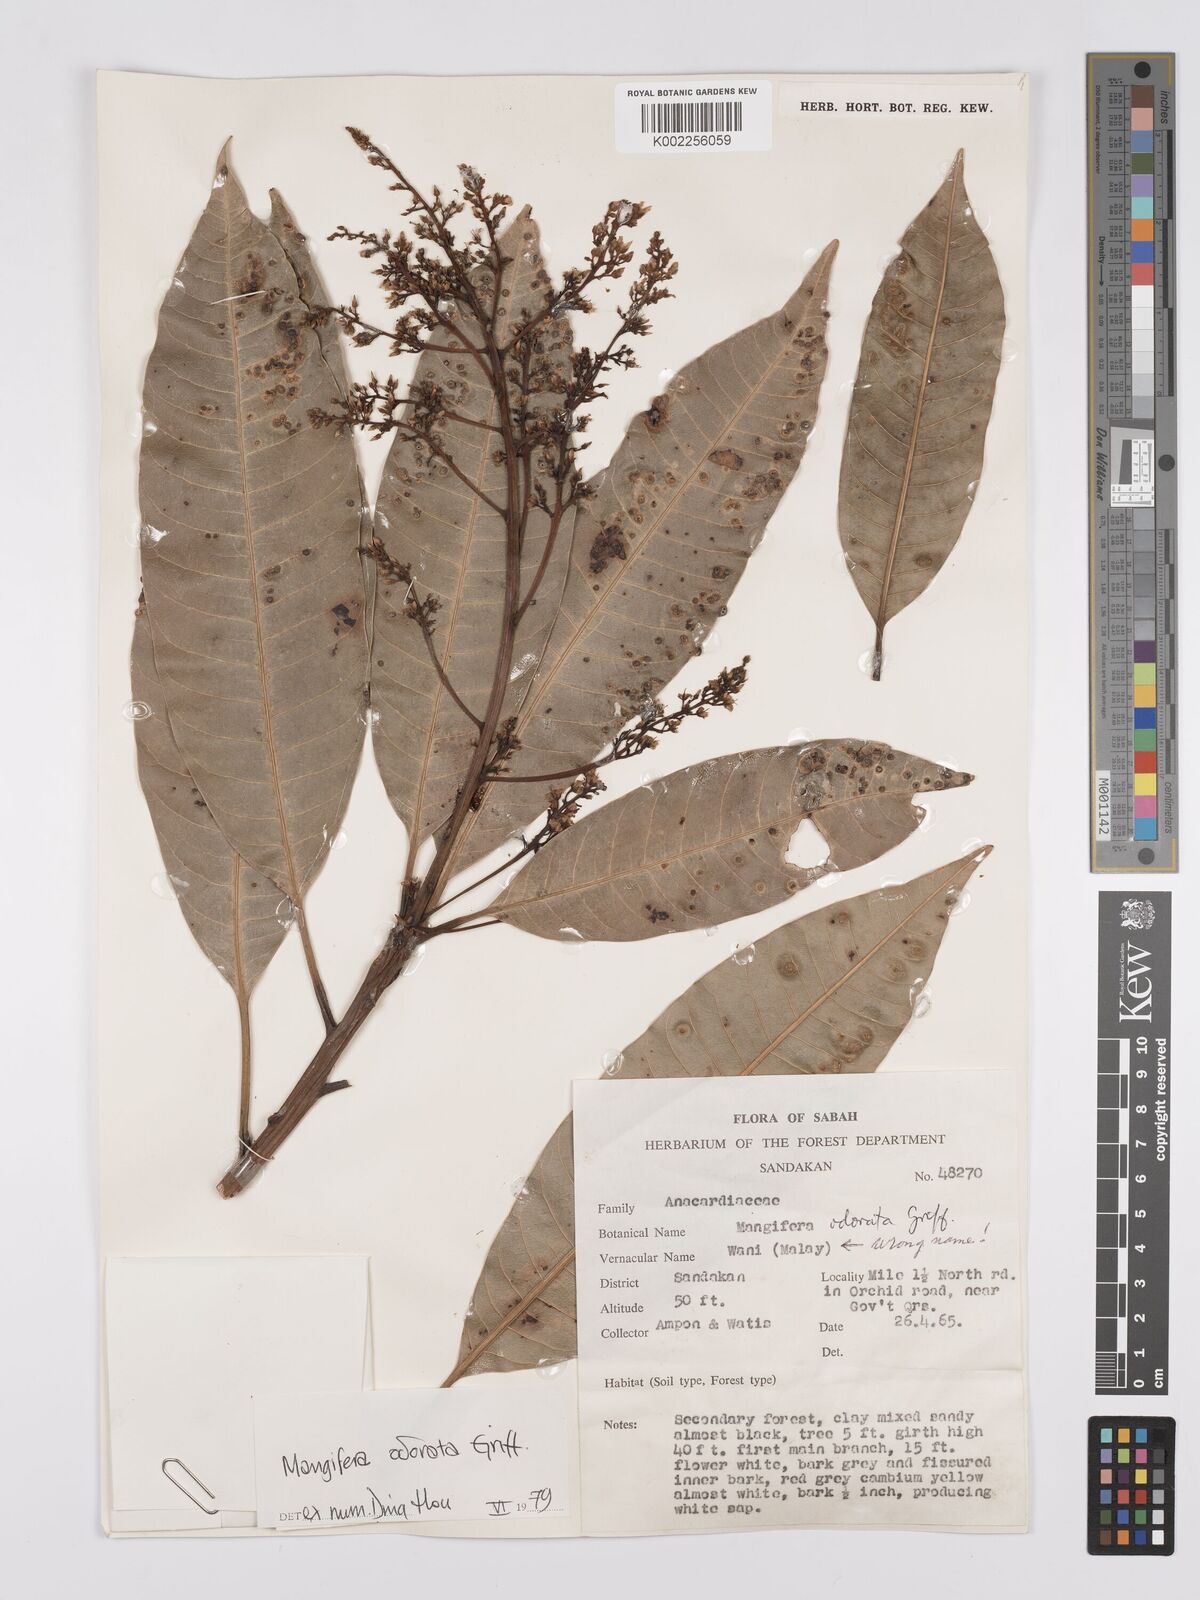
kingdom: Plantae
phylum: Tracheophyta
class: Magnoliopsida
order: Sapindales
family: Anacardiaceae
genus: Mangifera
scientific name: Mangifera odorata
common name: Saipan mango
